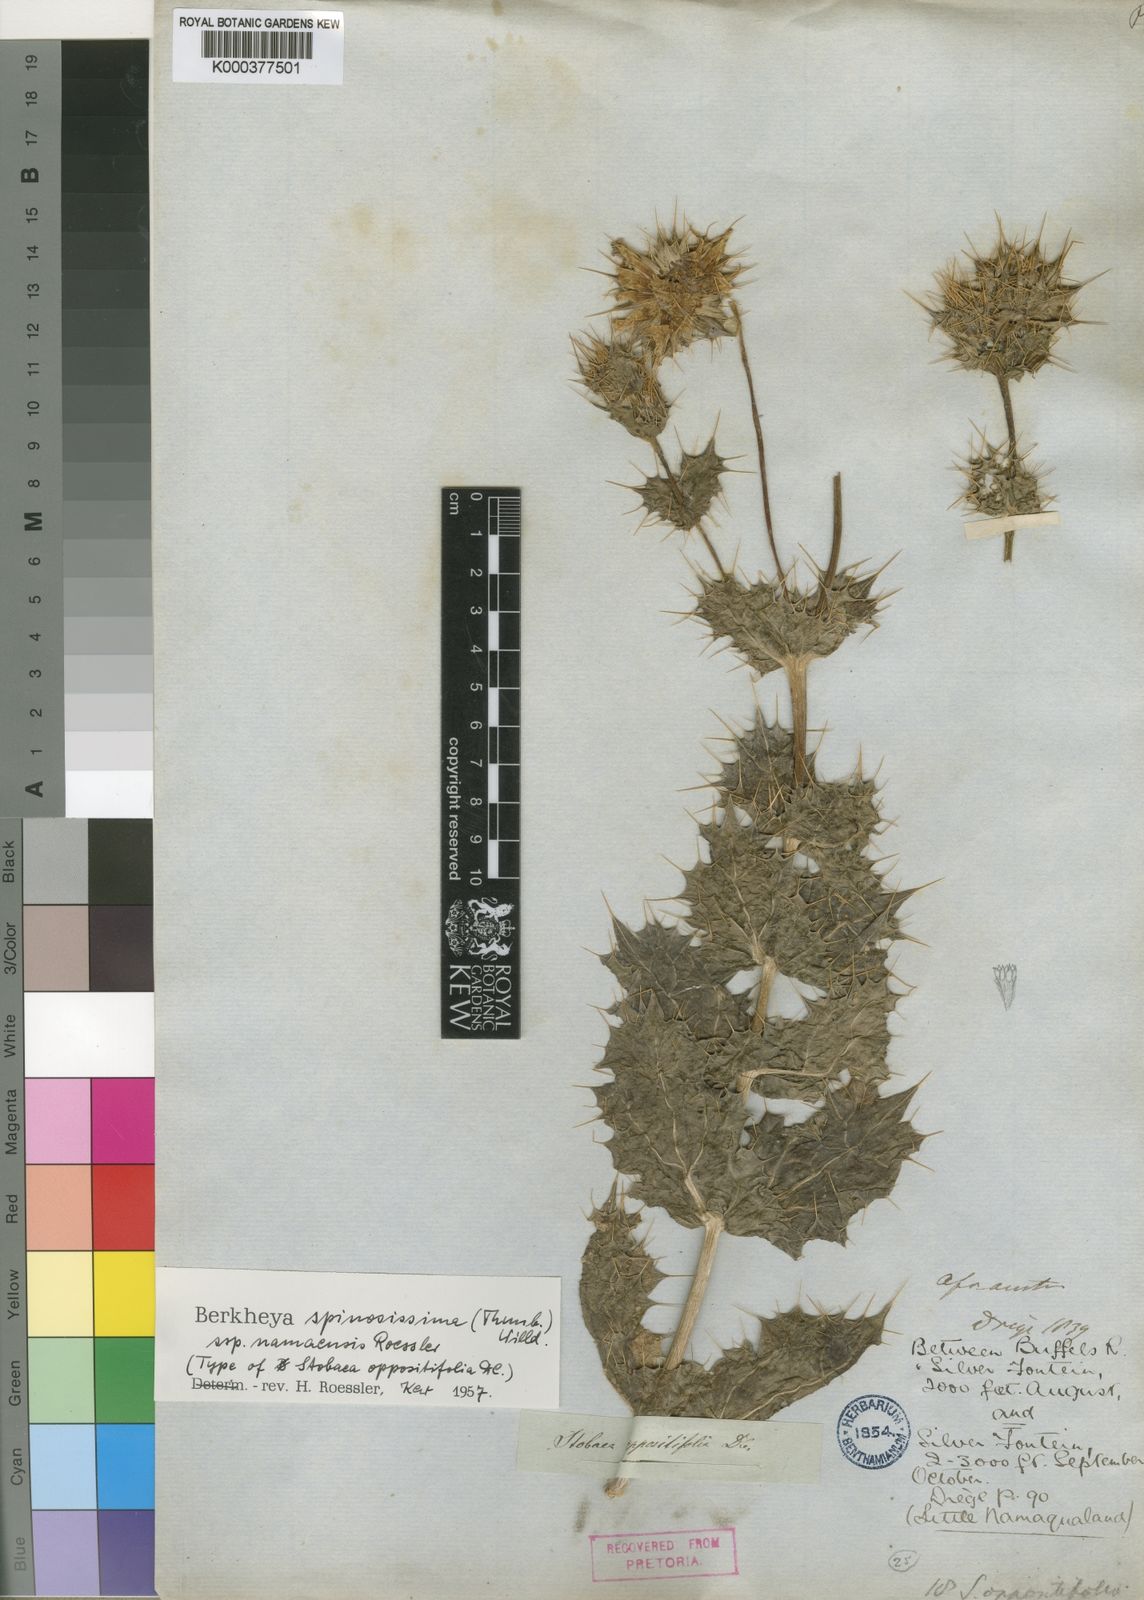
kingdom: Plantae
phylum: Tracheophyta
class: Magnoliopsida
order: Asterales
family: Asteraceae
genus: Berkheya
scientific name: Berkheya spinosissima
